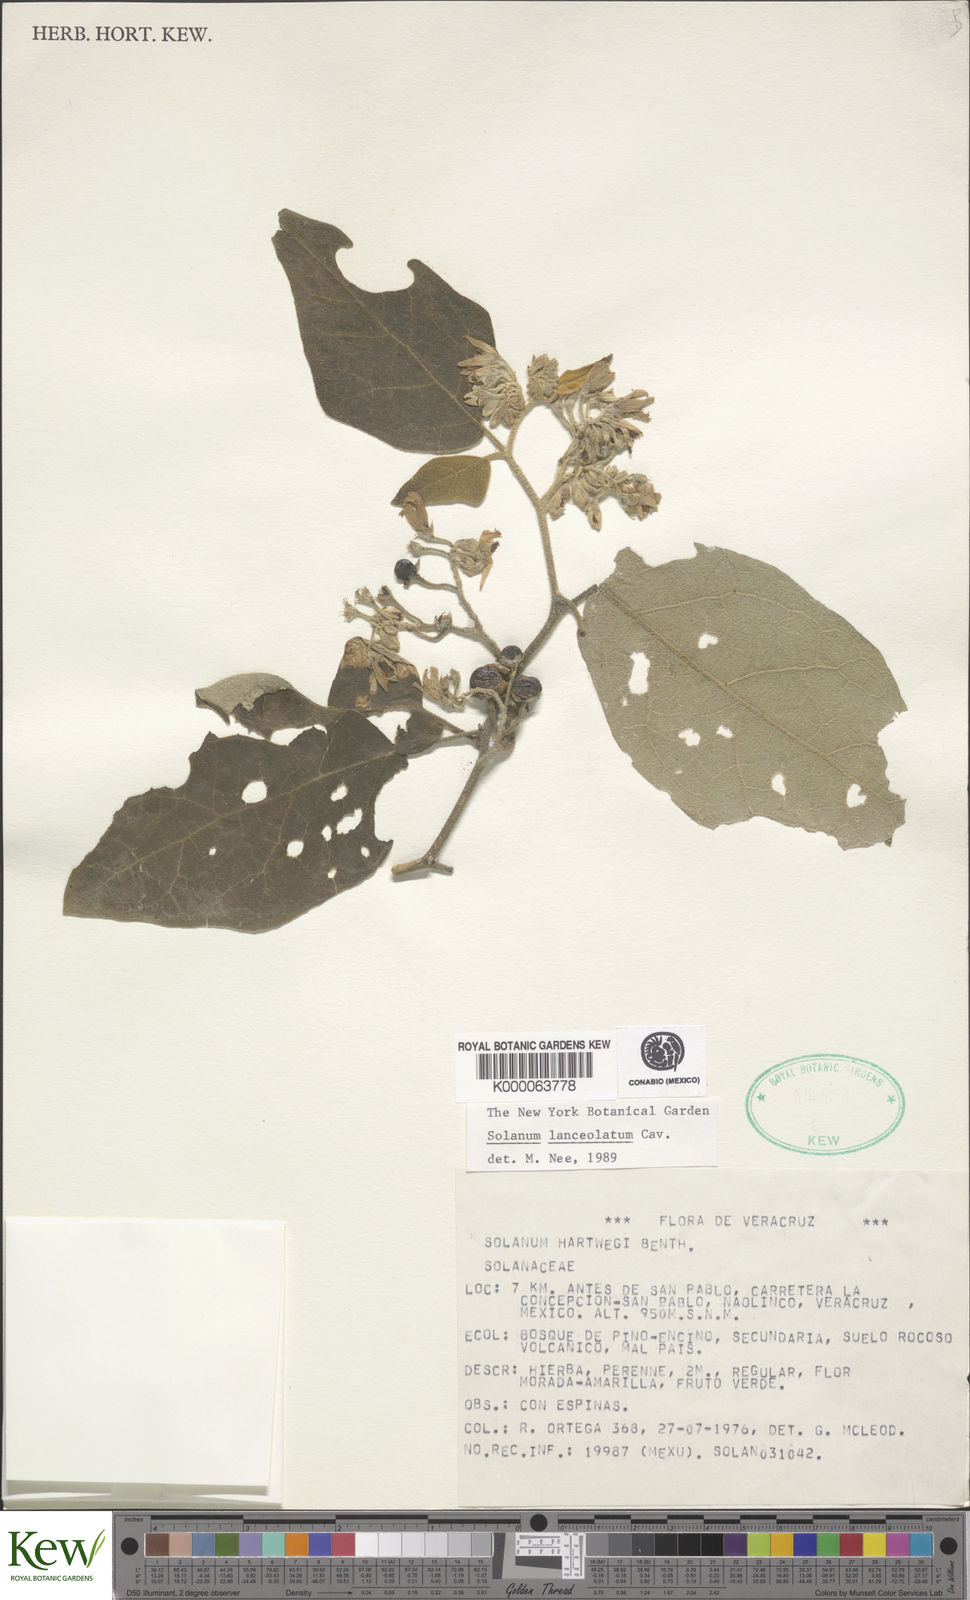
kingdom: Plantae
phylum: Tracheophyta
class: Magnoliopsida
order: Solanales
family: Solanaceae
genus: Solanum
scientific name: Solanum lanceolatum
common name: Orangeberry nightshade
